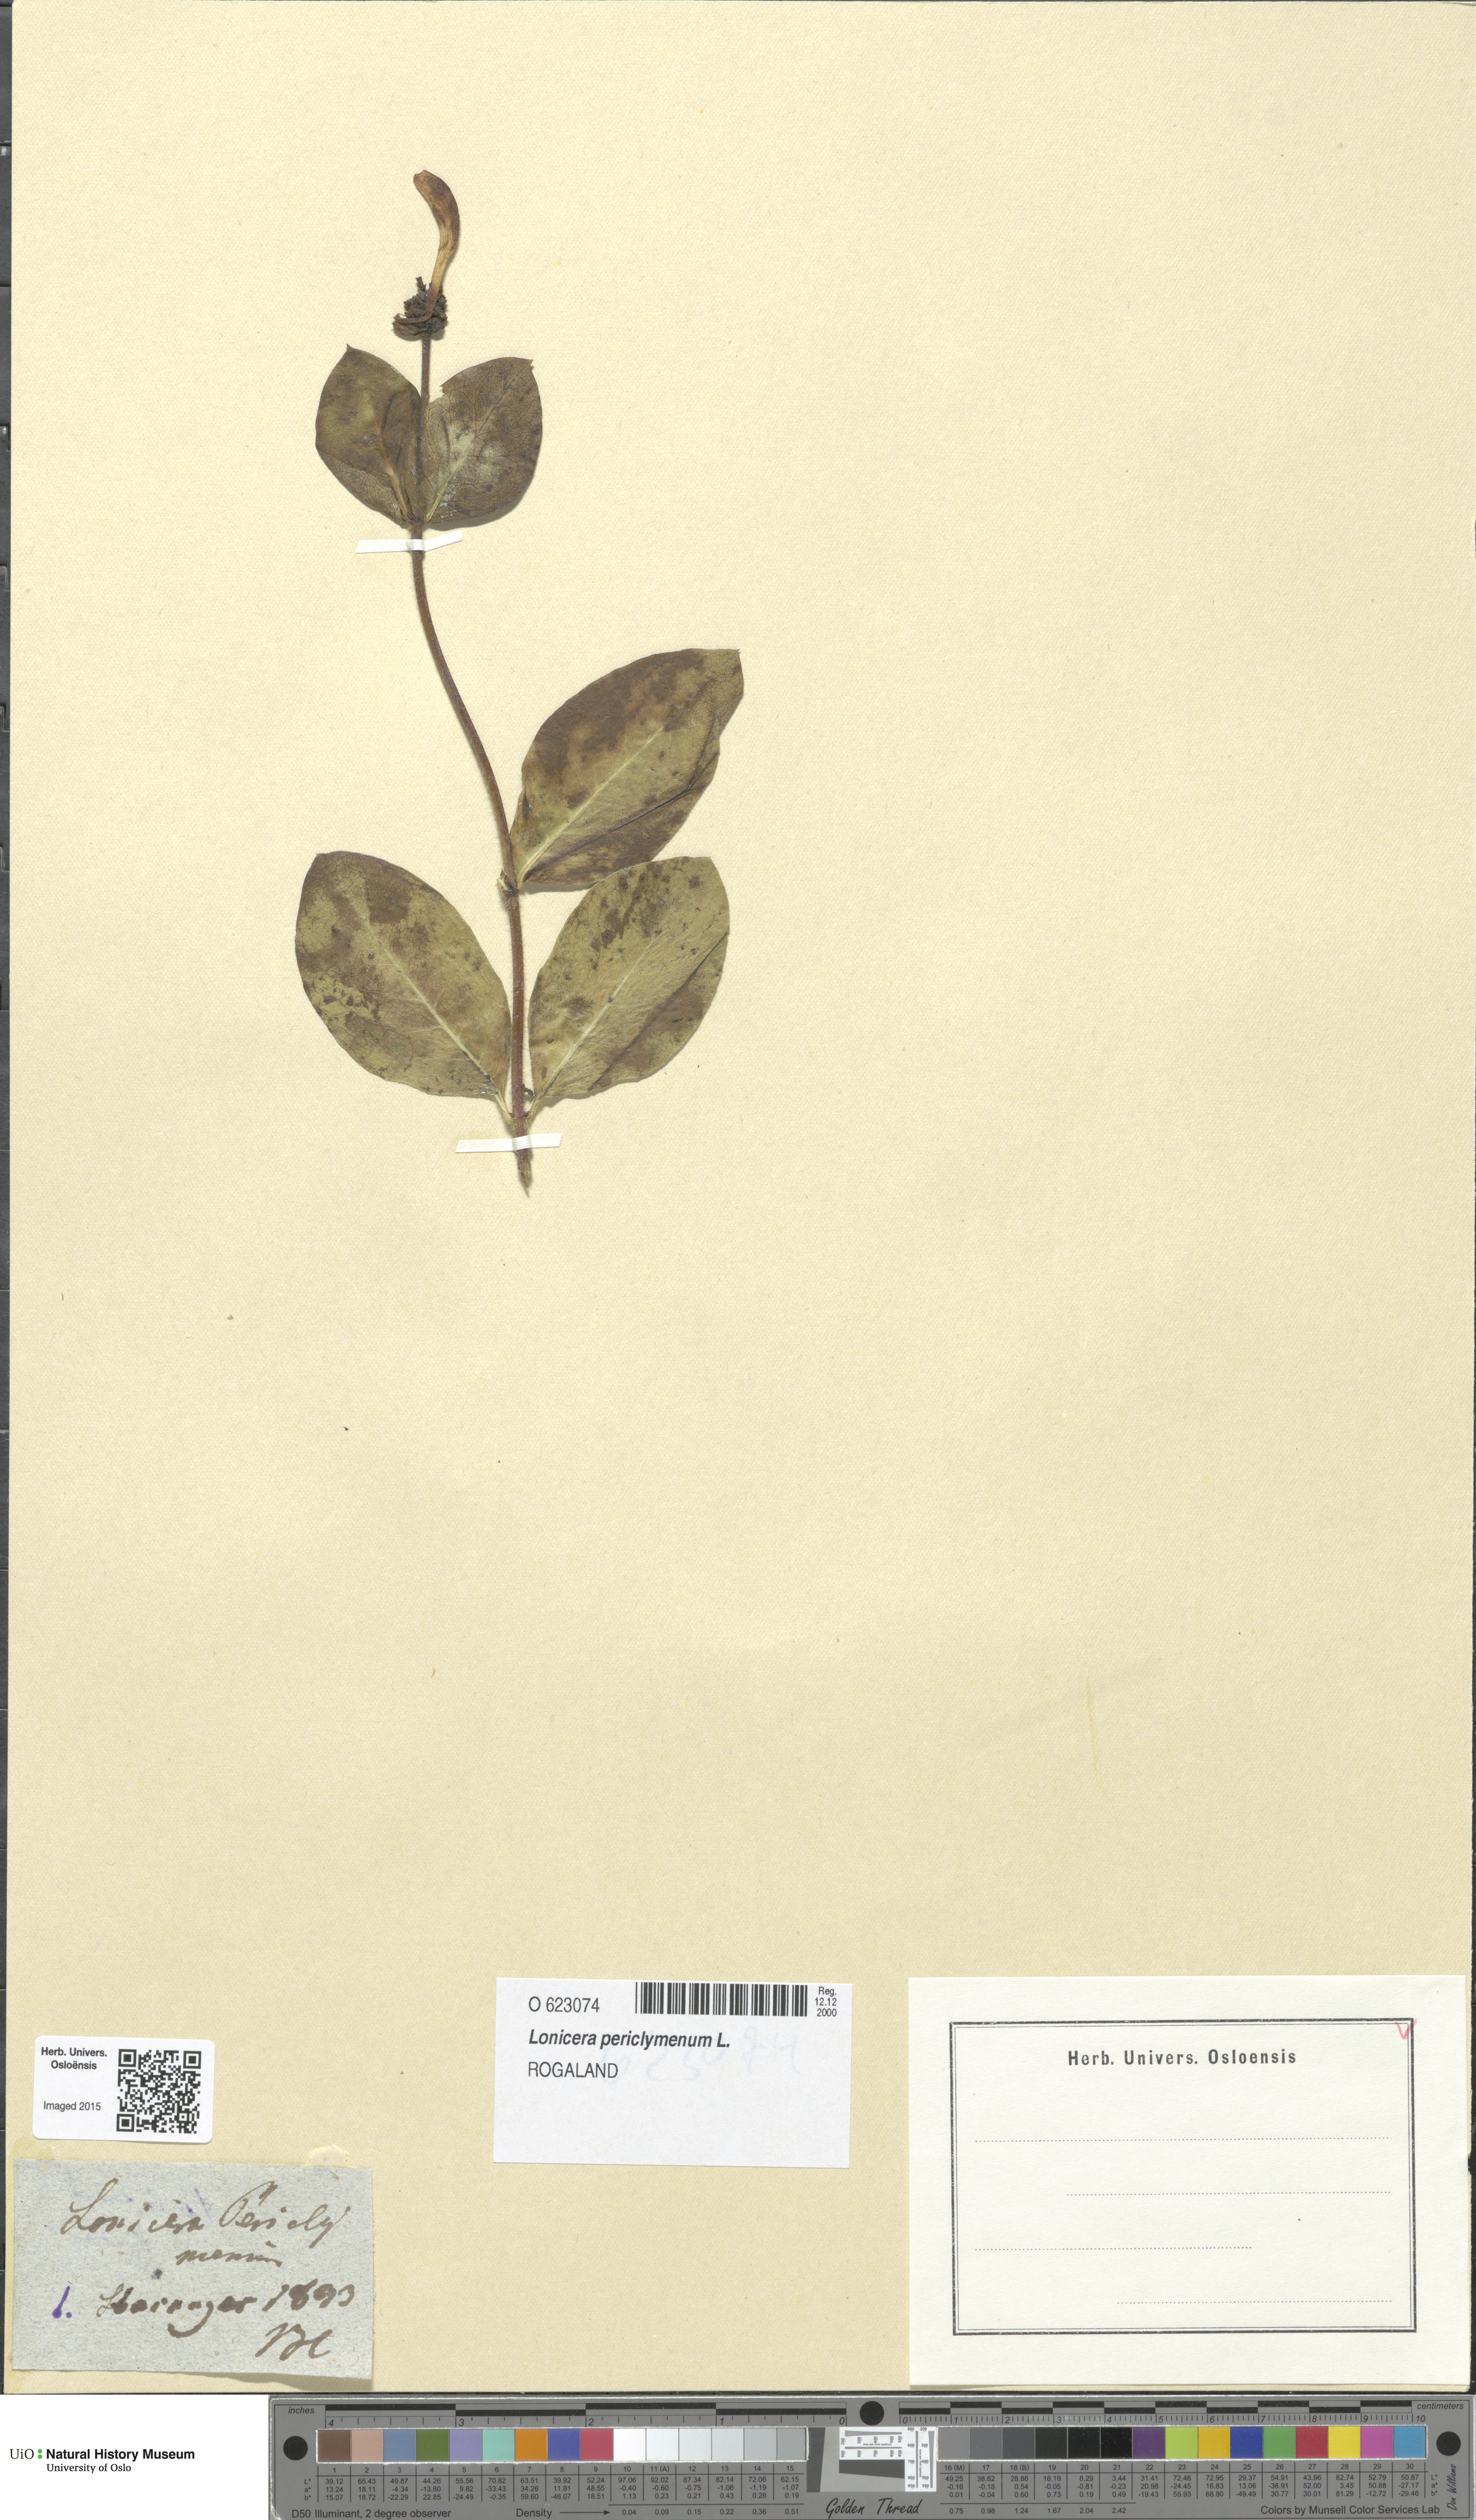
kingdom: Plantae
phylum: Tracheophyta
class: Magnoliopsida
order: Dipsacales
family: Caprifoliaceae
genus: Lonicera
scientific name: Lonicera periclymenum
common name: European honeysuckle
